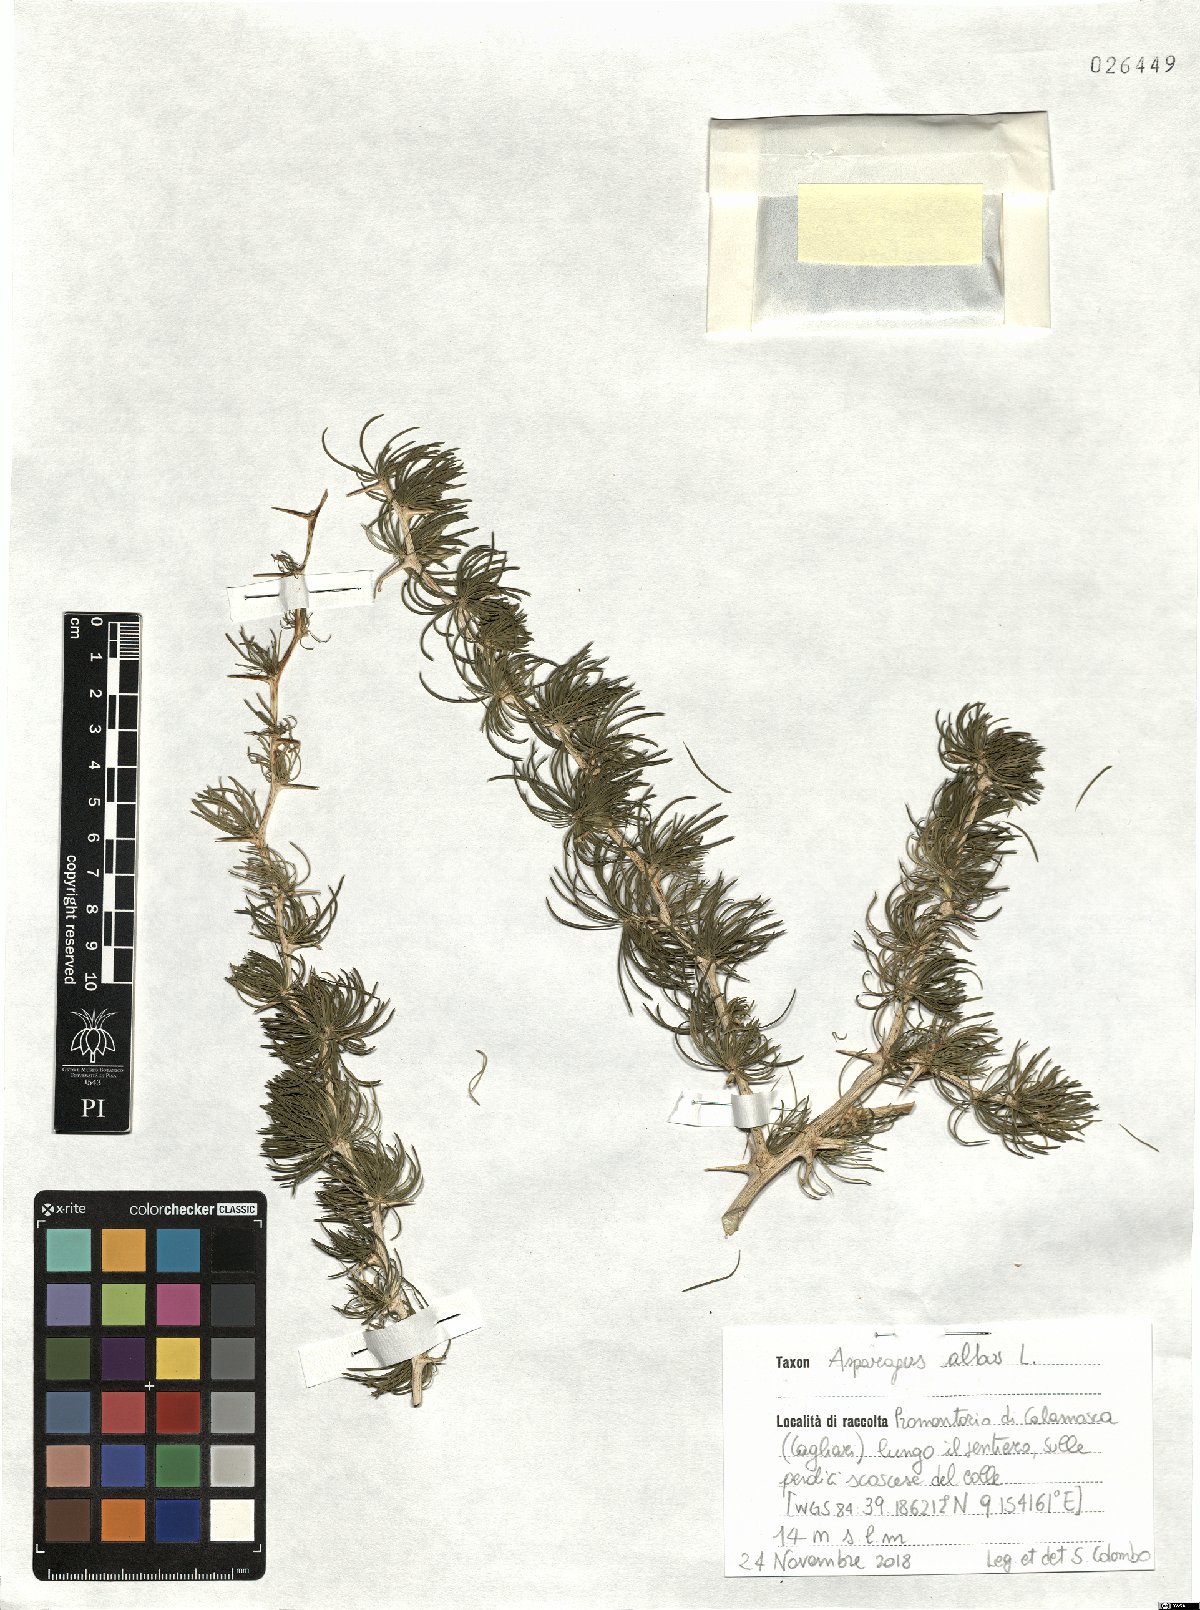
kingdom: Plantae
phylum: Tracheophyta
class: Liliopsida
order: Asparagales
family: Asparagaceae
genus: Asparagus
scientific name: Asparagus albus
